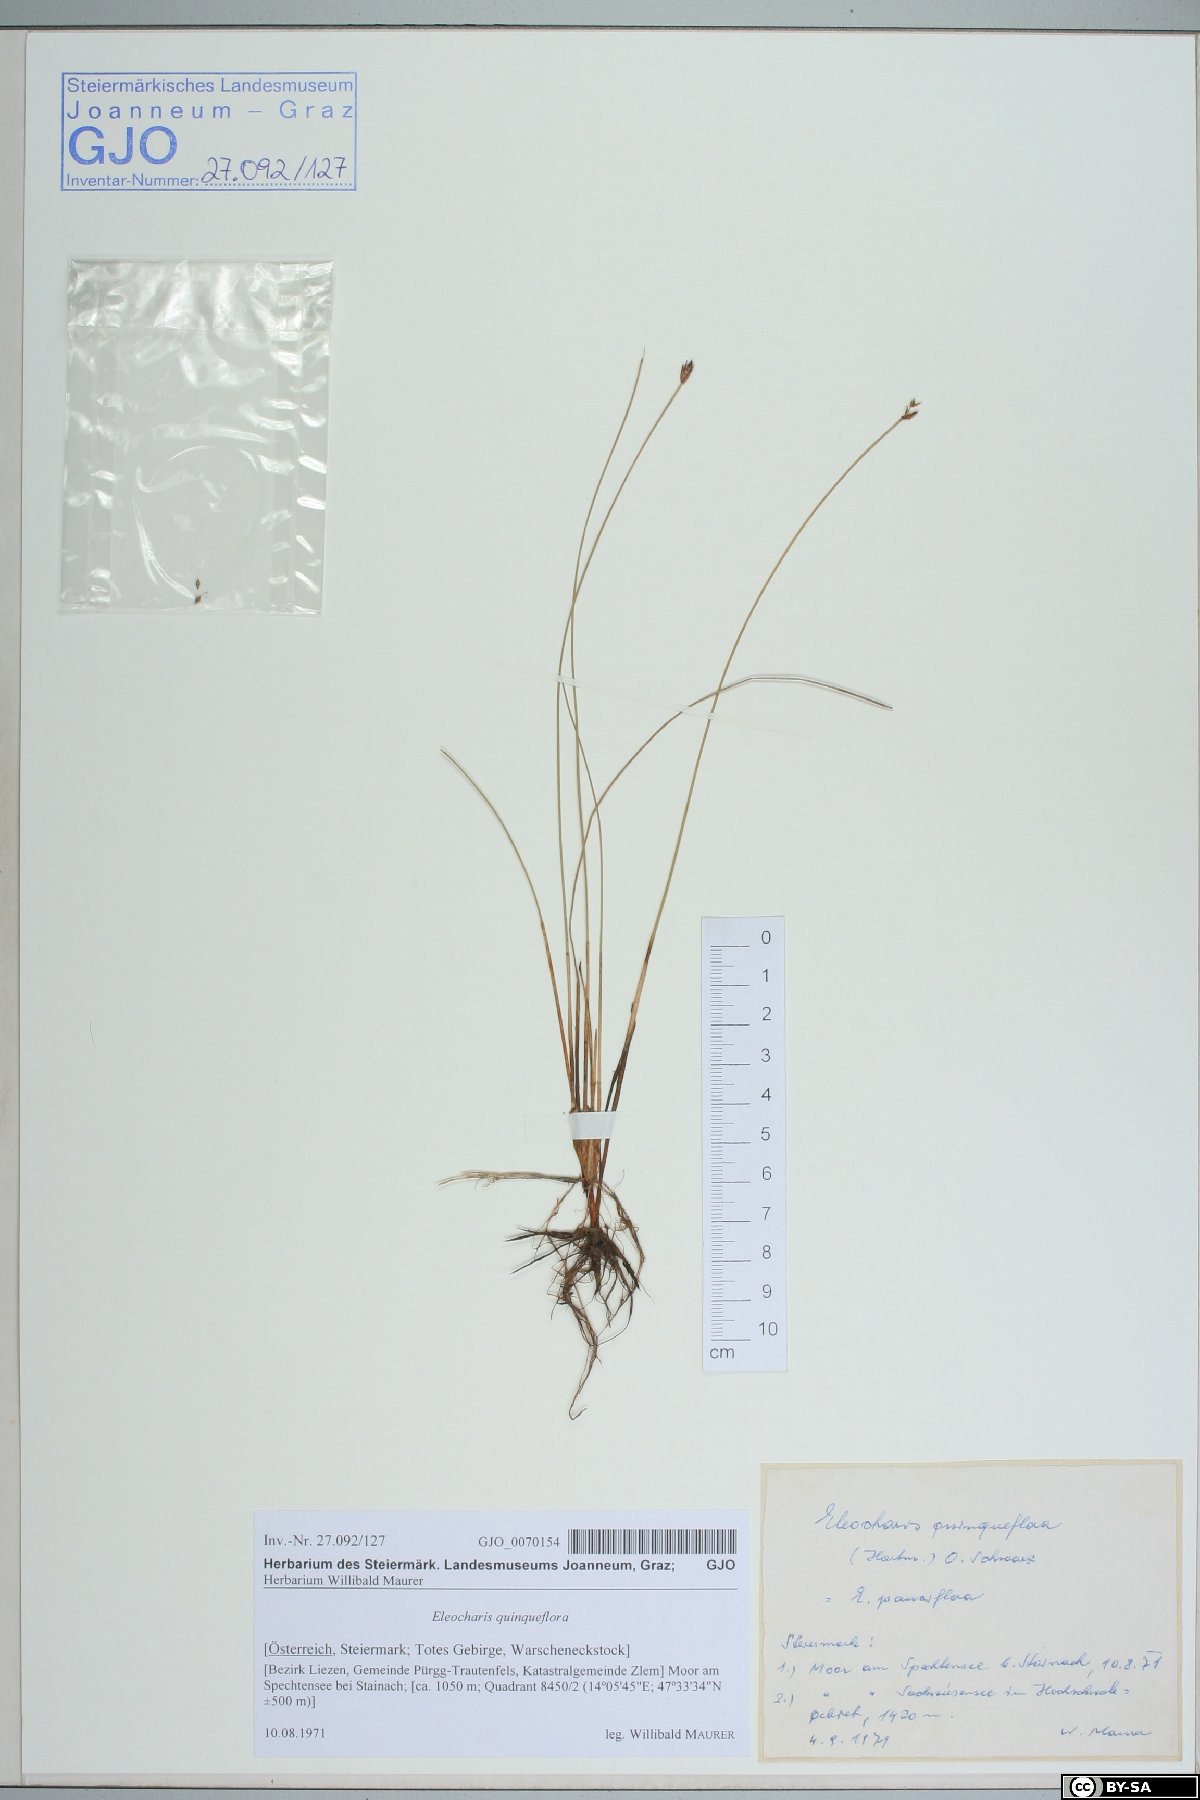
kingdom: Plantae
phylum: Tracheophyta
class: Liliopsida
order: Poales
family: Cyperaceae
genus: Eleocharis
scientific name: Eleocharis quinqueflora
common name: Few-flowered spike-rush
